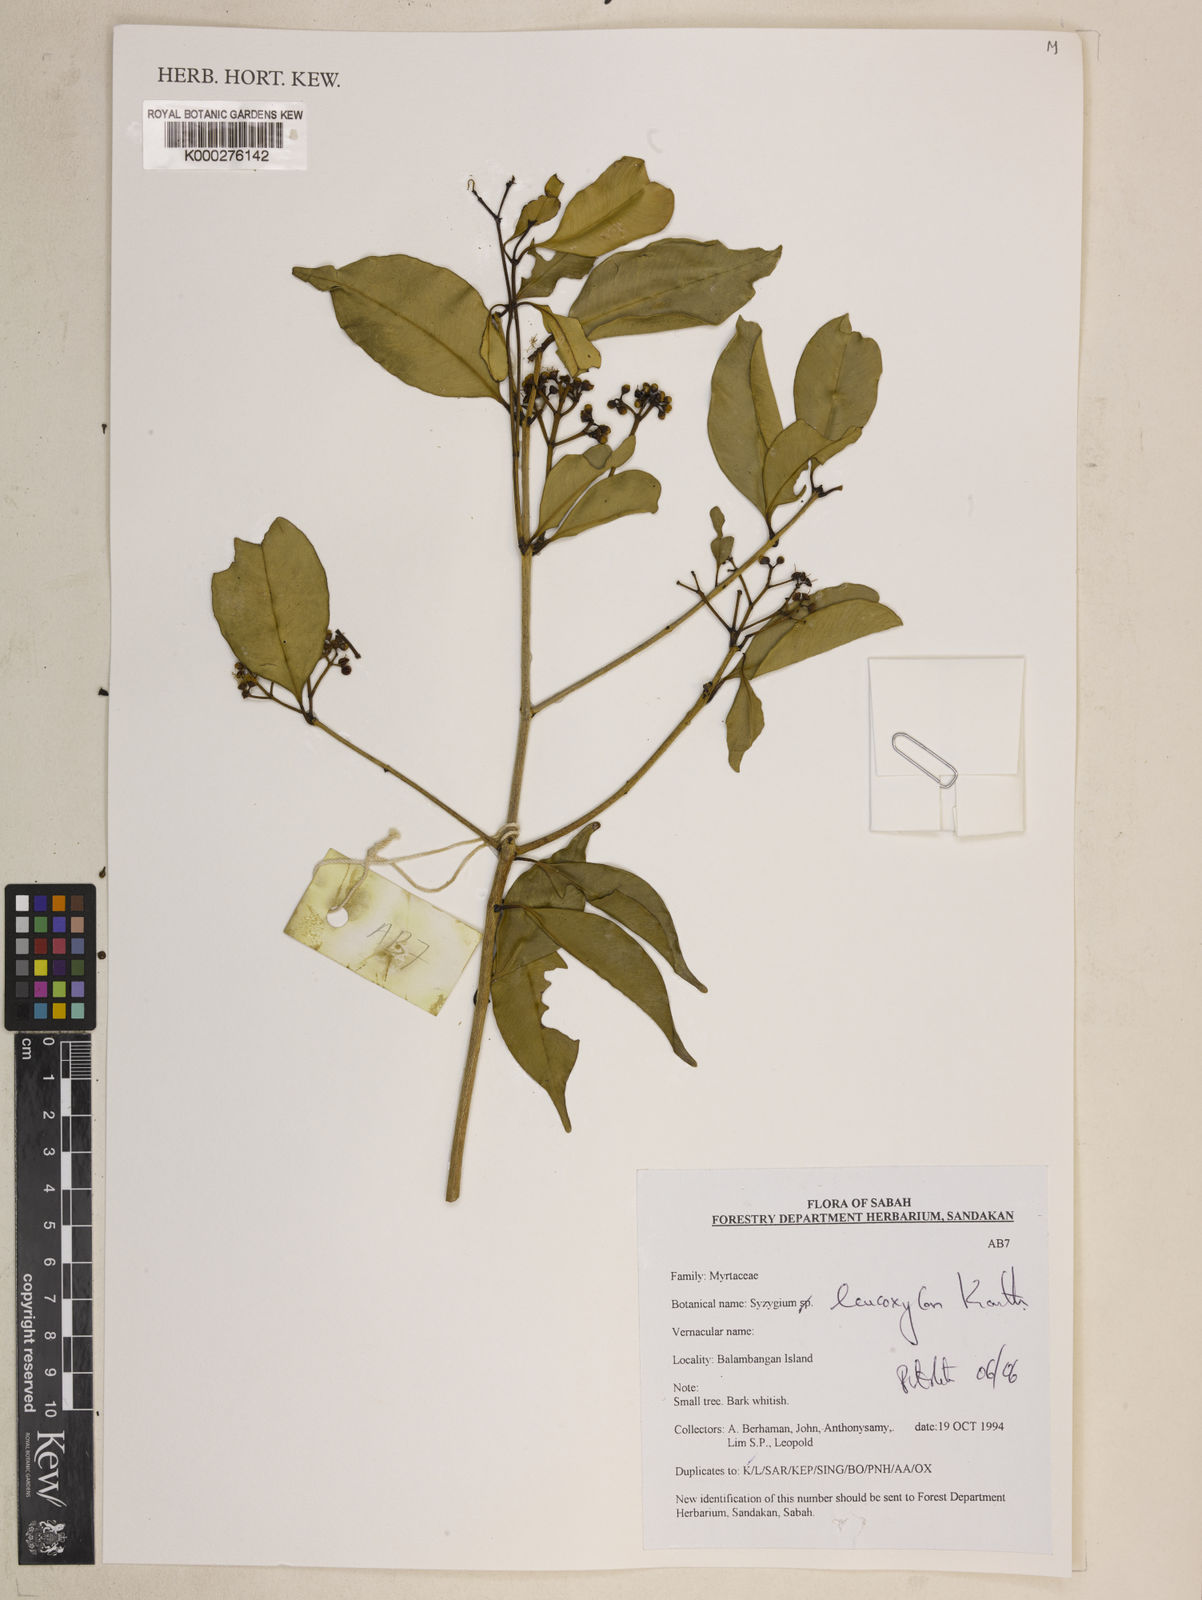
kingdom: Plantae
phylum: Tracheophyta
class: Magnoliopsida
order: Myrtales
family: Myrtaceae
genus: Syzygium
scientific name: Syzygium leucoxylon
